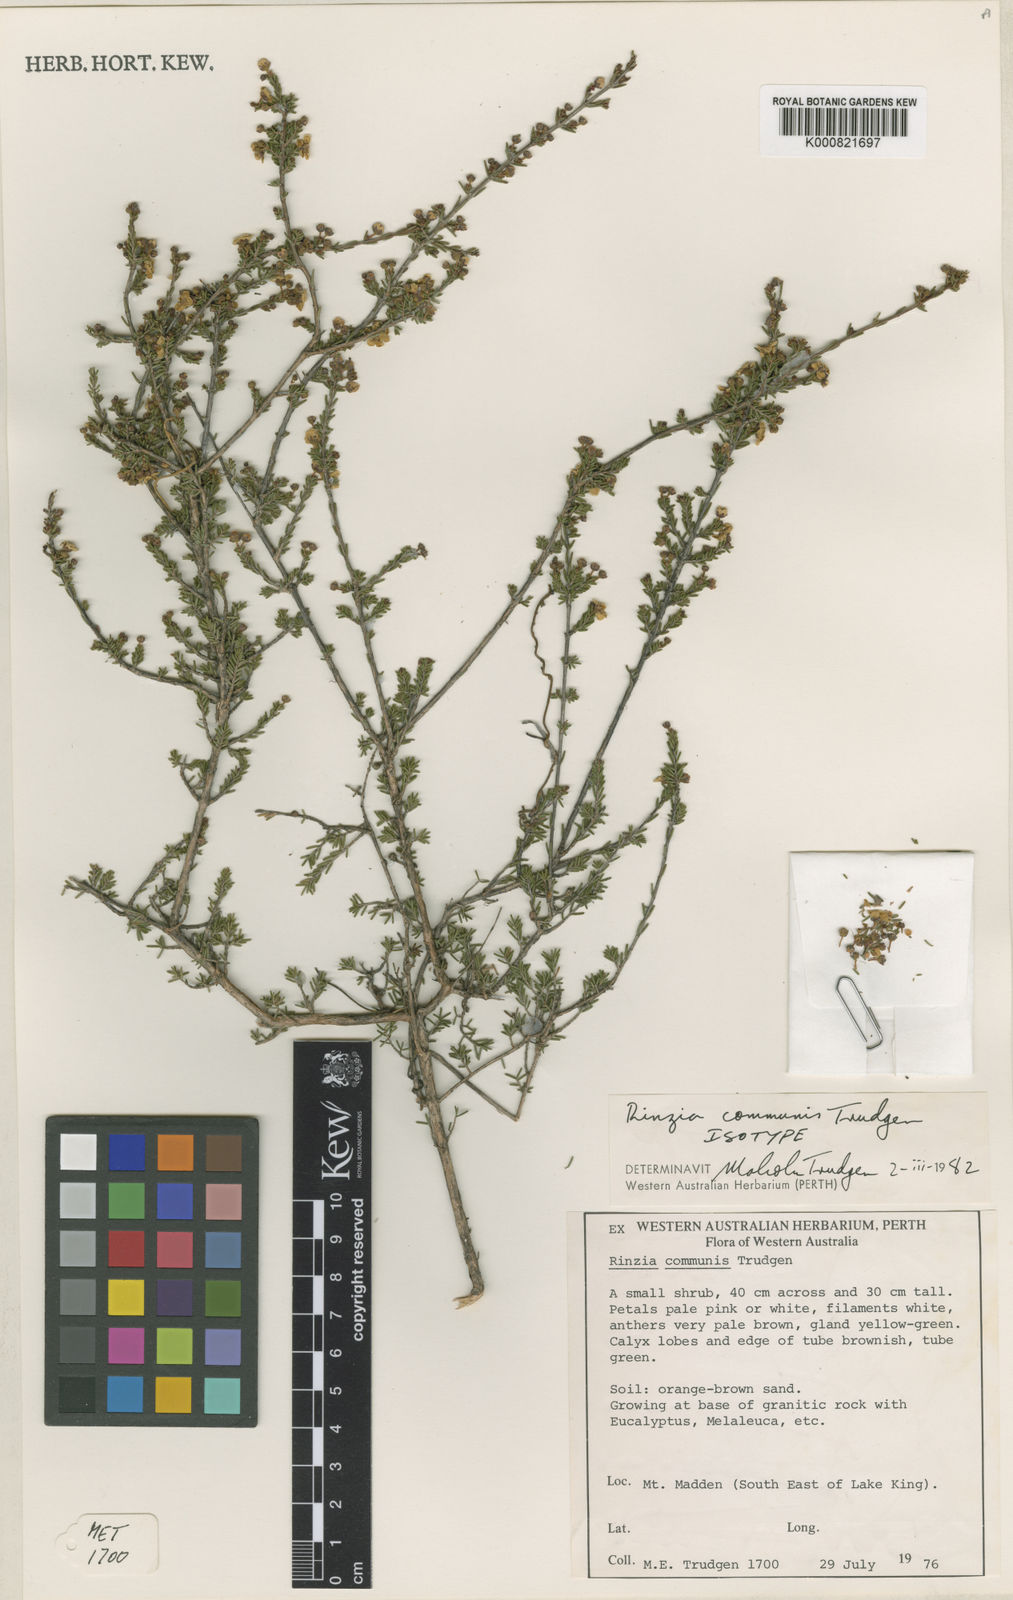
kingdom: Plantae
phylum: Tracheophyta
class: Magnoliopsida
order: Myrtales
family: Myrtaceae
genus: Baeckea
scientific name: Baeckea
